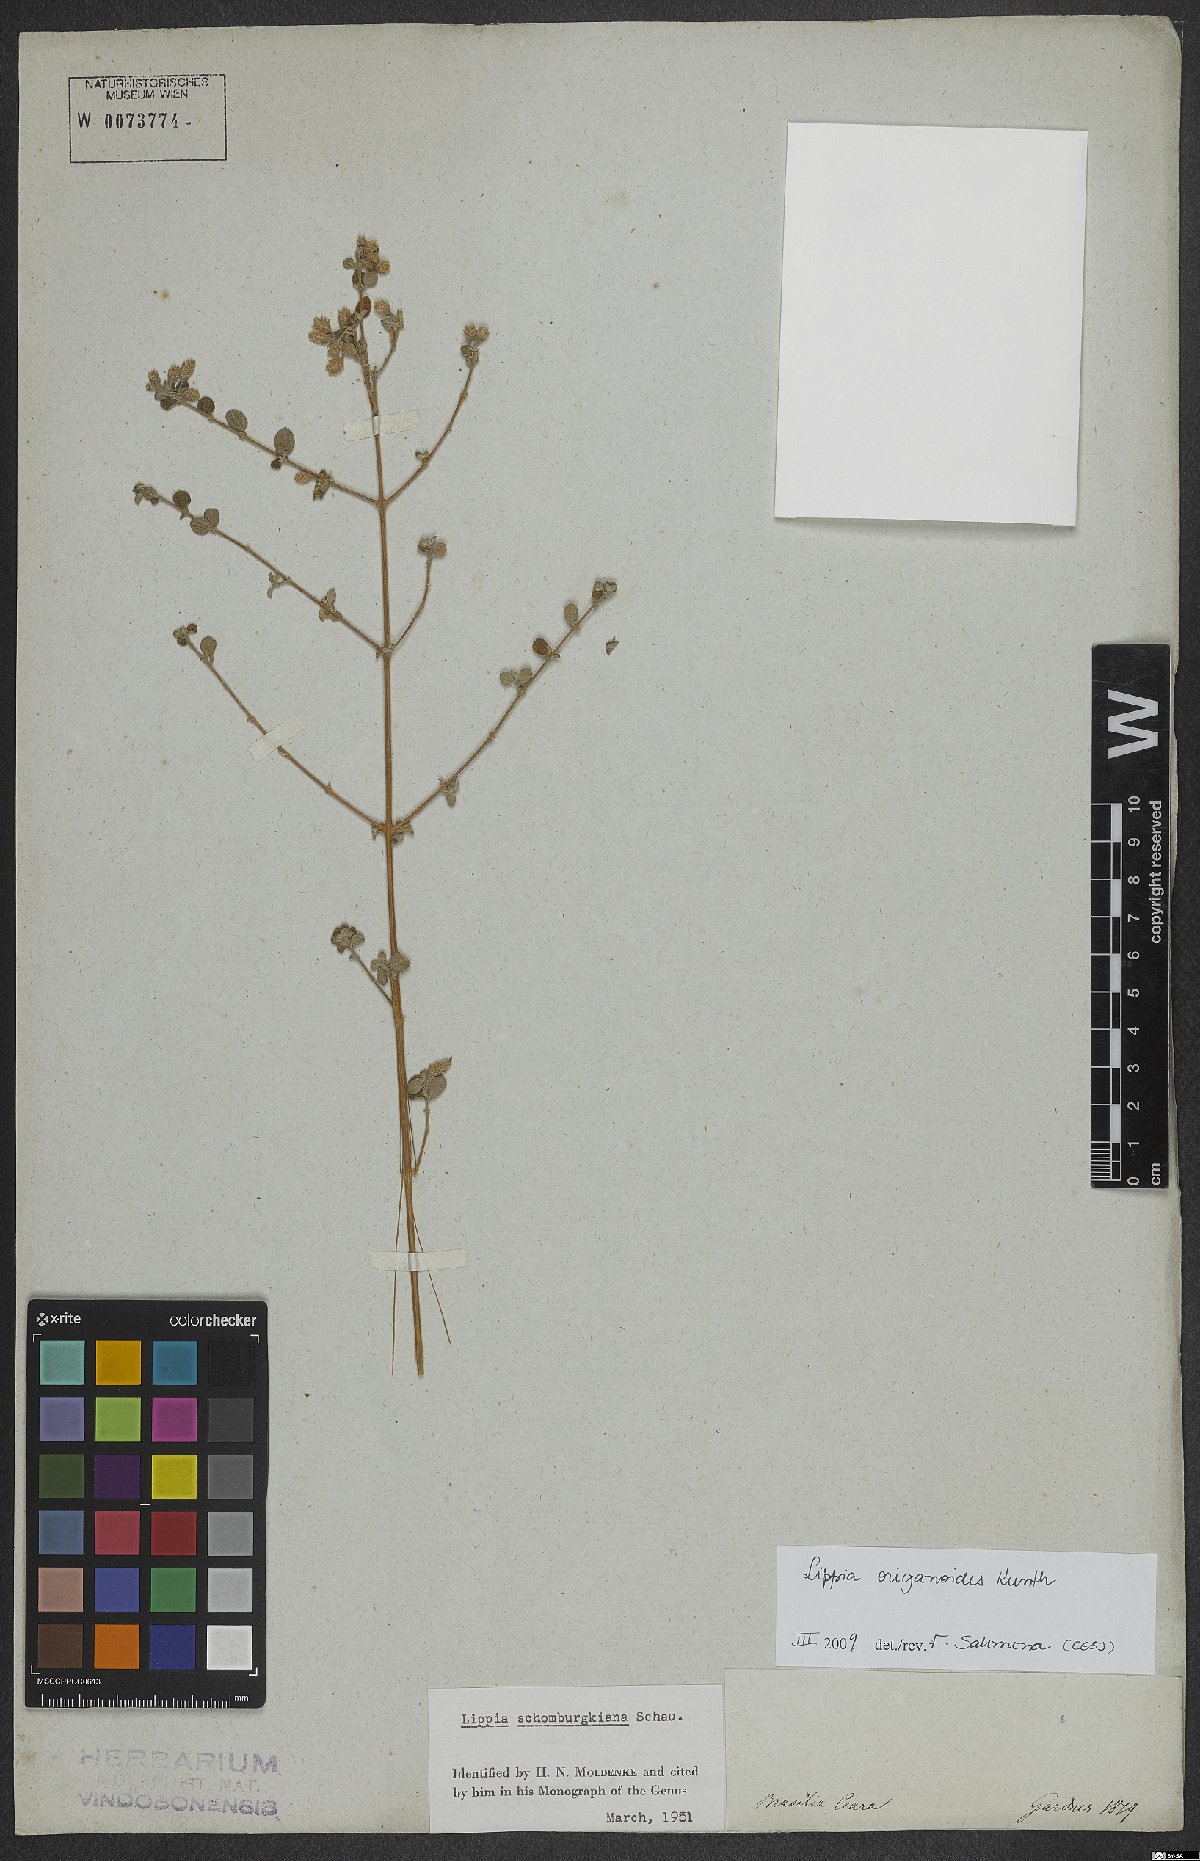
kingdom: Plantae
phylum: Tracheophyta
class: Magnoliopsida
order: Lamiales
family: Verbenaceae
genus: Lippia
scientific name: Lippia origanoides
